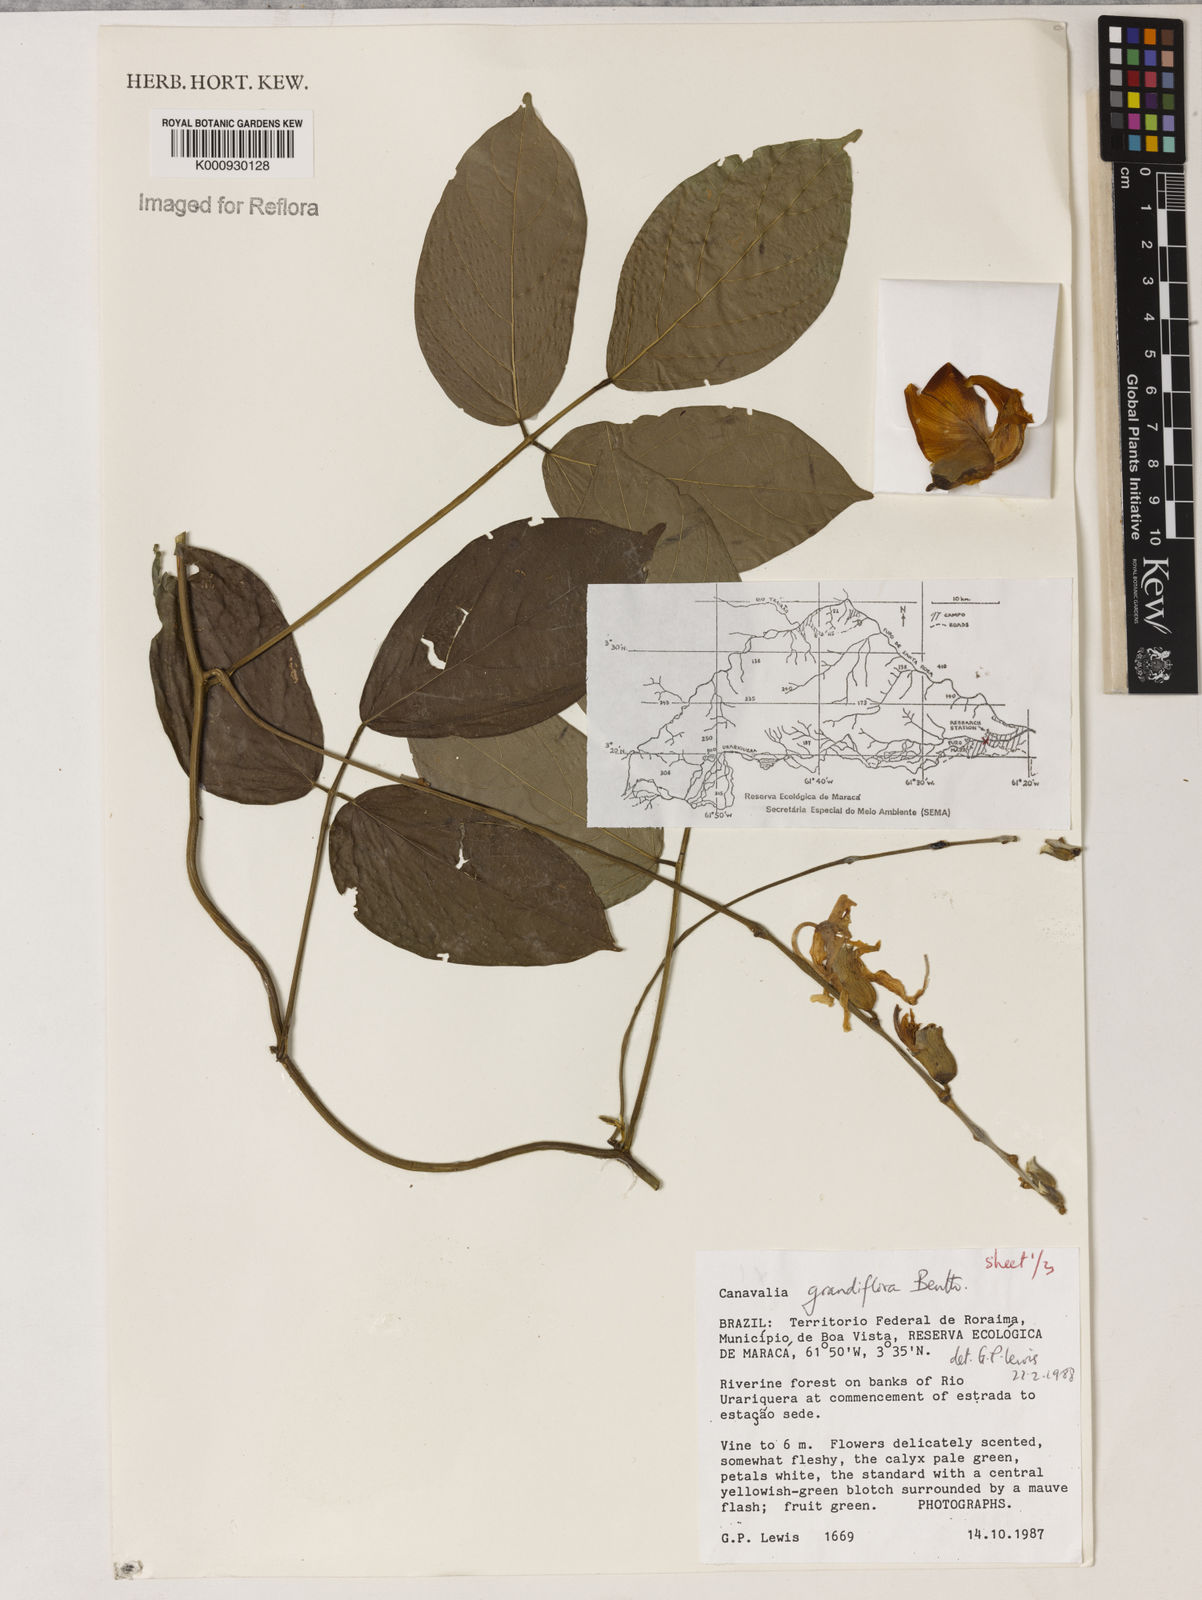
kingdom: Plantae
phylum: Tracheophyta
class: Magnoliopsida
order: Fabales
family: Fabaceae
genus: Canavalia
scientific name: Canavalia grandiflora
